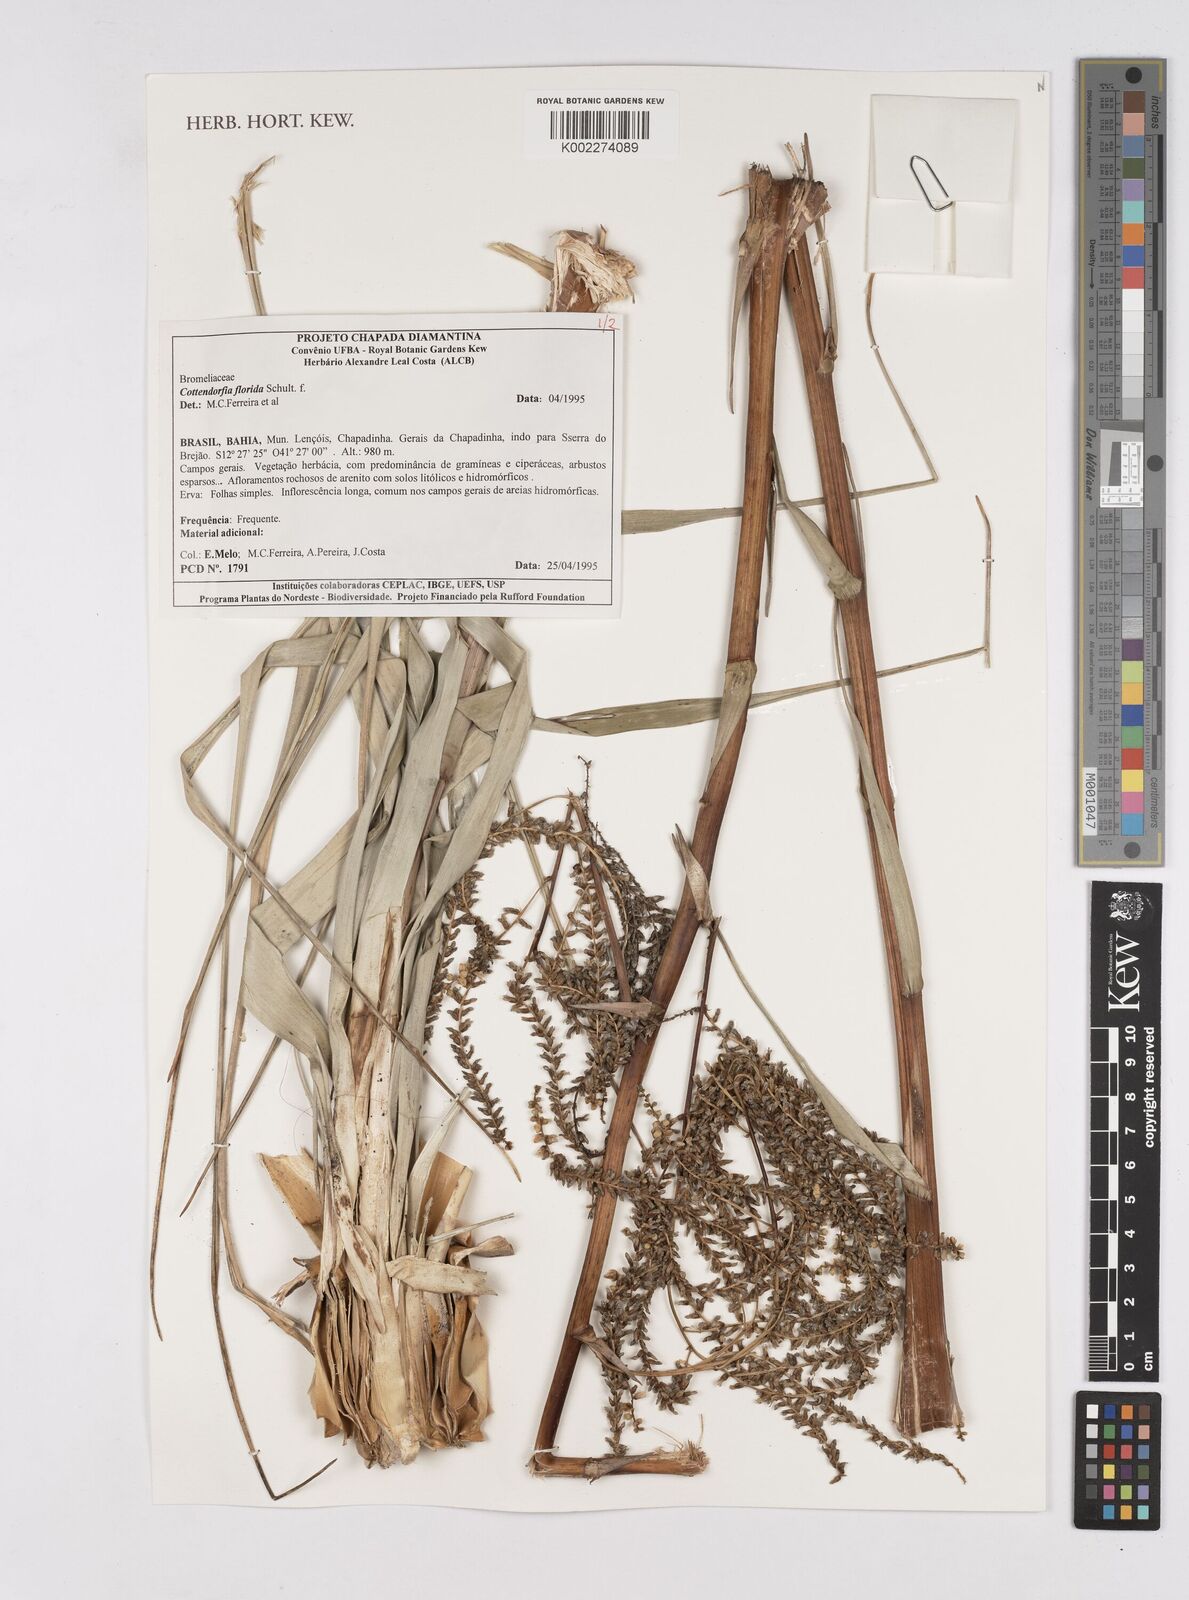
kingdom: Plantae
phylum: Tracheophyta
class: Liliopsida
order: Poales
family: Bromeliaceae
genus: Cottendorfia
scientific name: Cottendorfia florida
